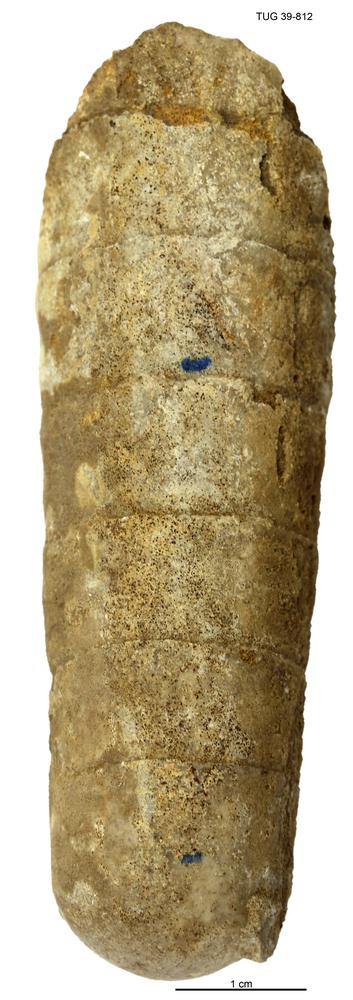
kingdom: Animalia
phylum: Mollusca
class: Cephalopoda
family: Lituitidae
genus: Lituites
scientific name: Lituites lituus
